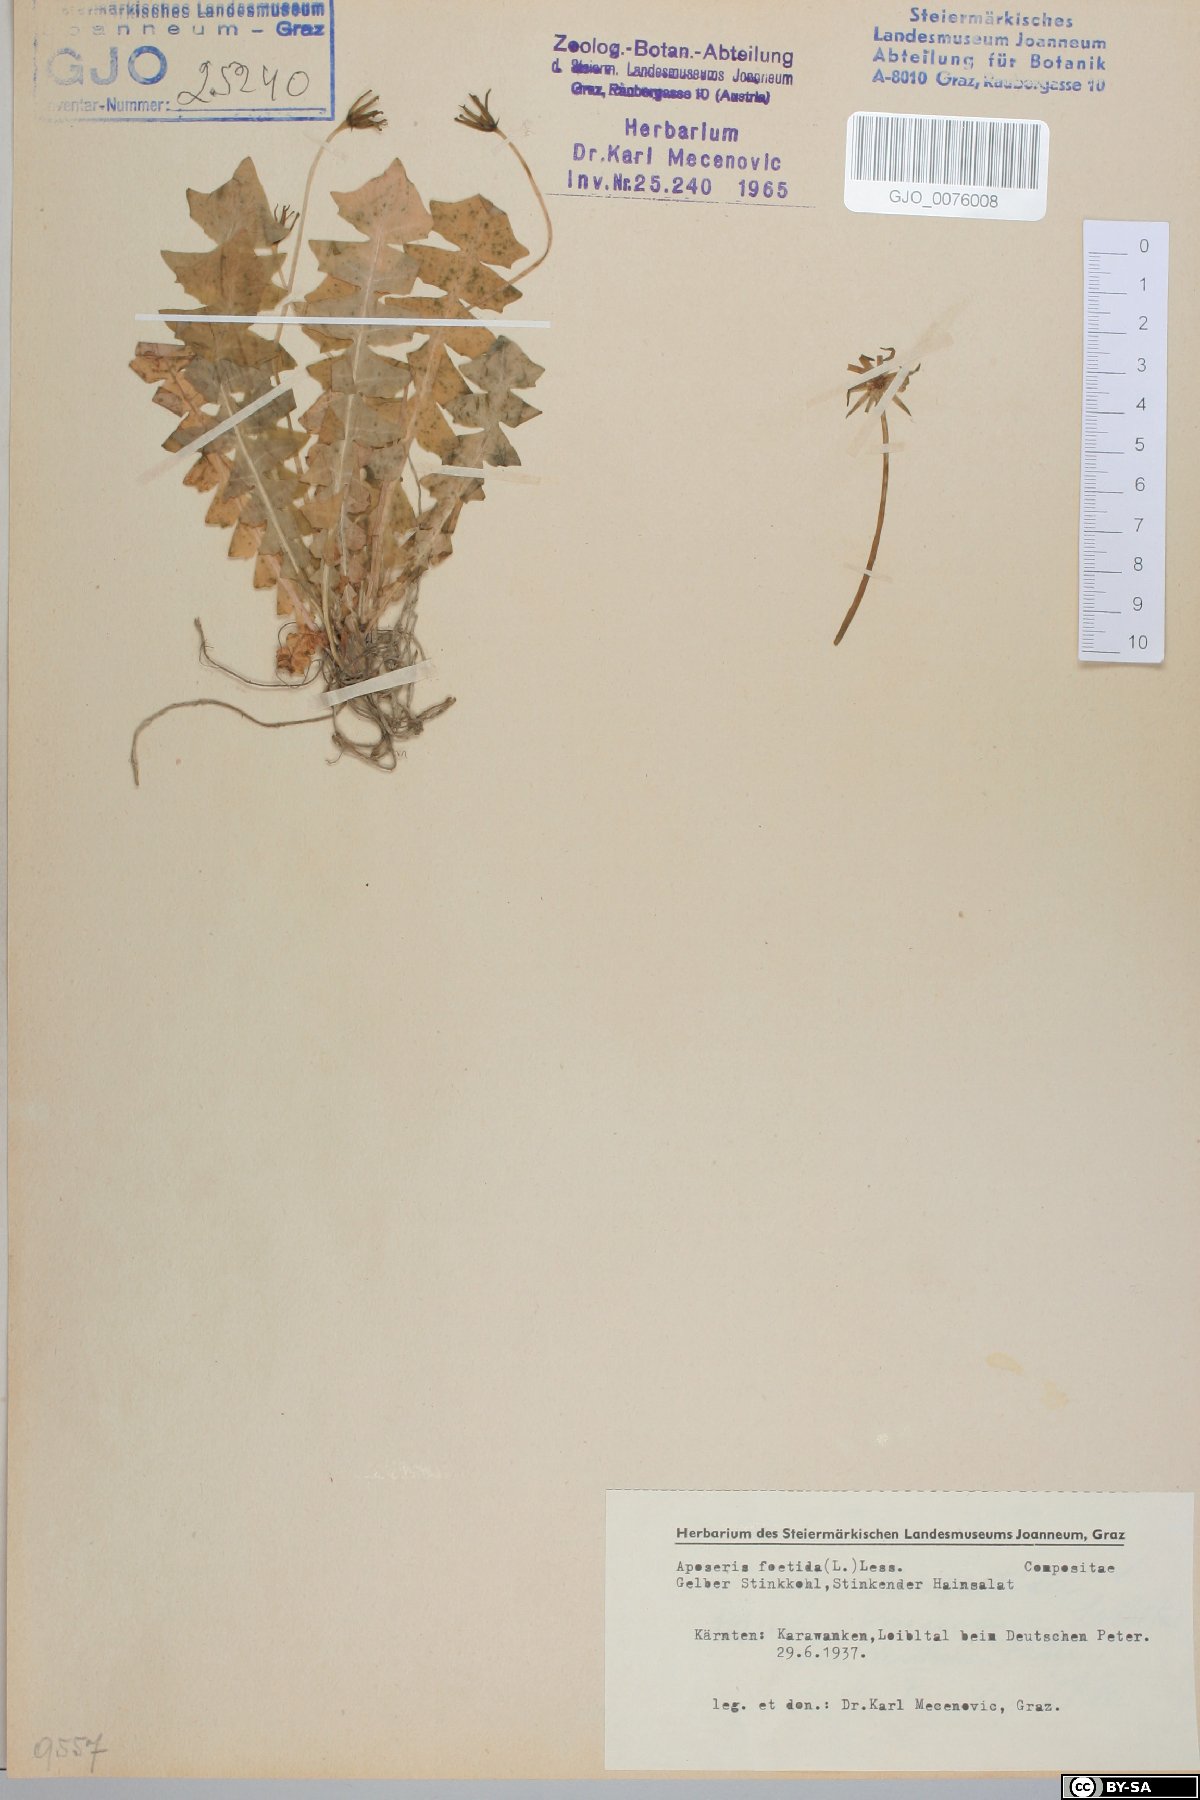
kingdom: Plantae
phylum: Tracheophyta
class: Magnoliopsida
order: Asterales
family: Asteraceae
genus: Aposeris
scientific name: Aposeris foetida
